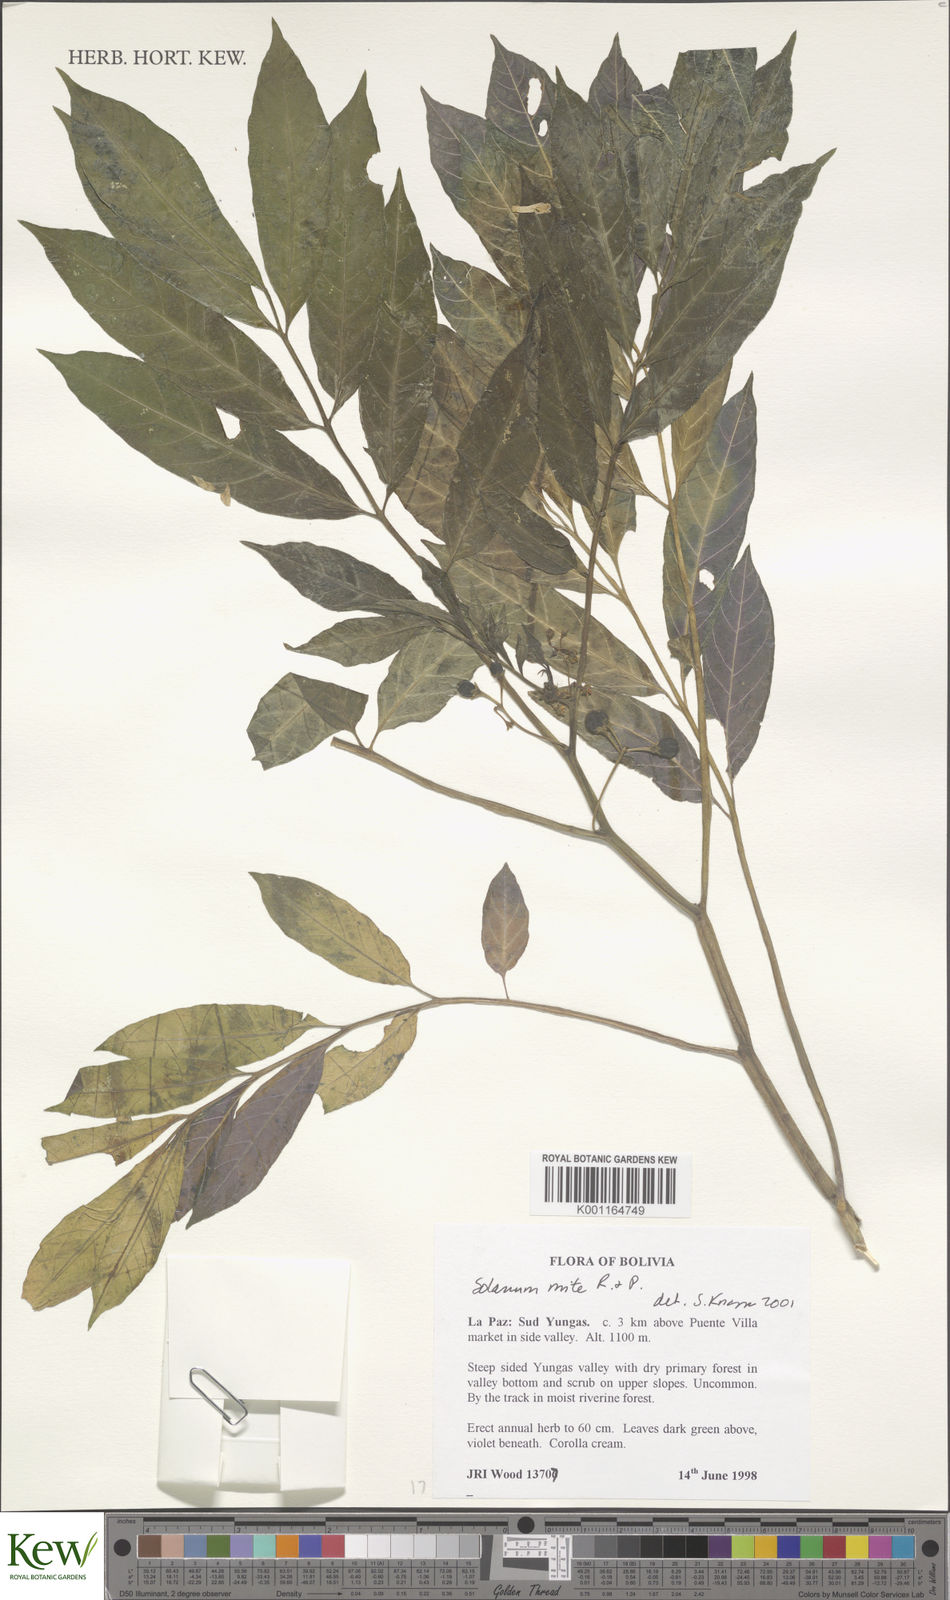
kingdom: Plantae
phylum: Tracheophyta
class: Magnoliopsida
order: Solanales
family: Solanaceae
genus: Solanum
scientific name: Solanum mite
